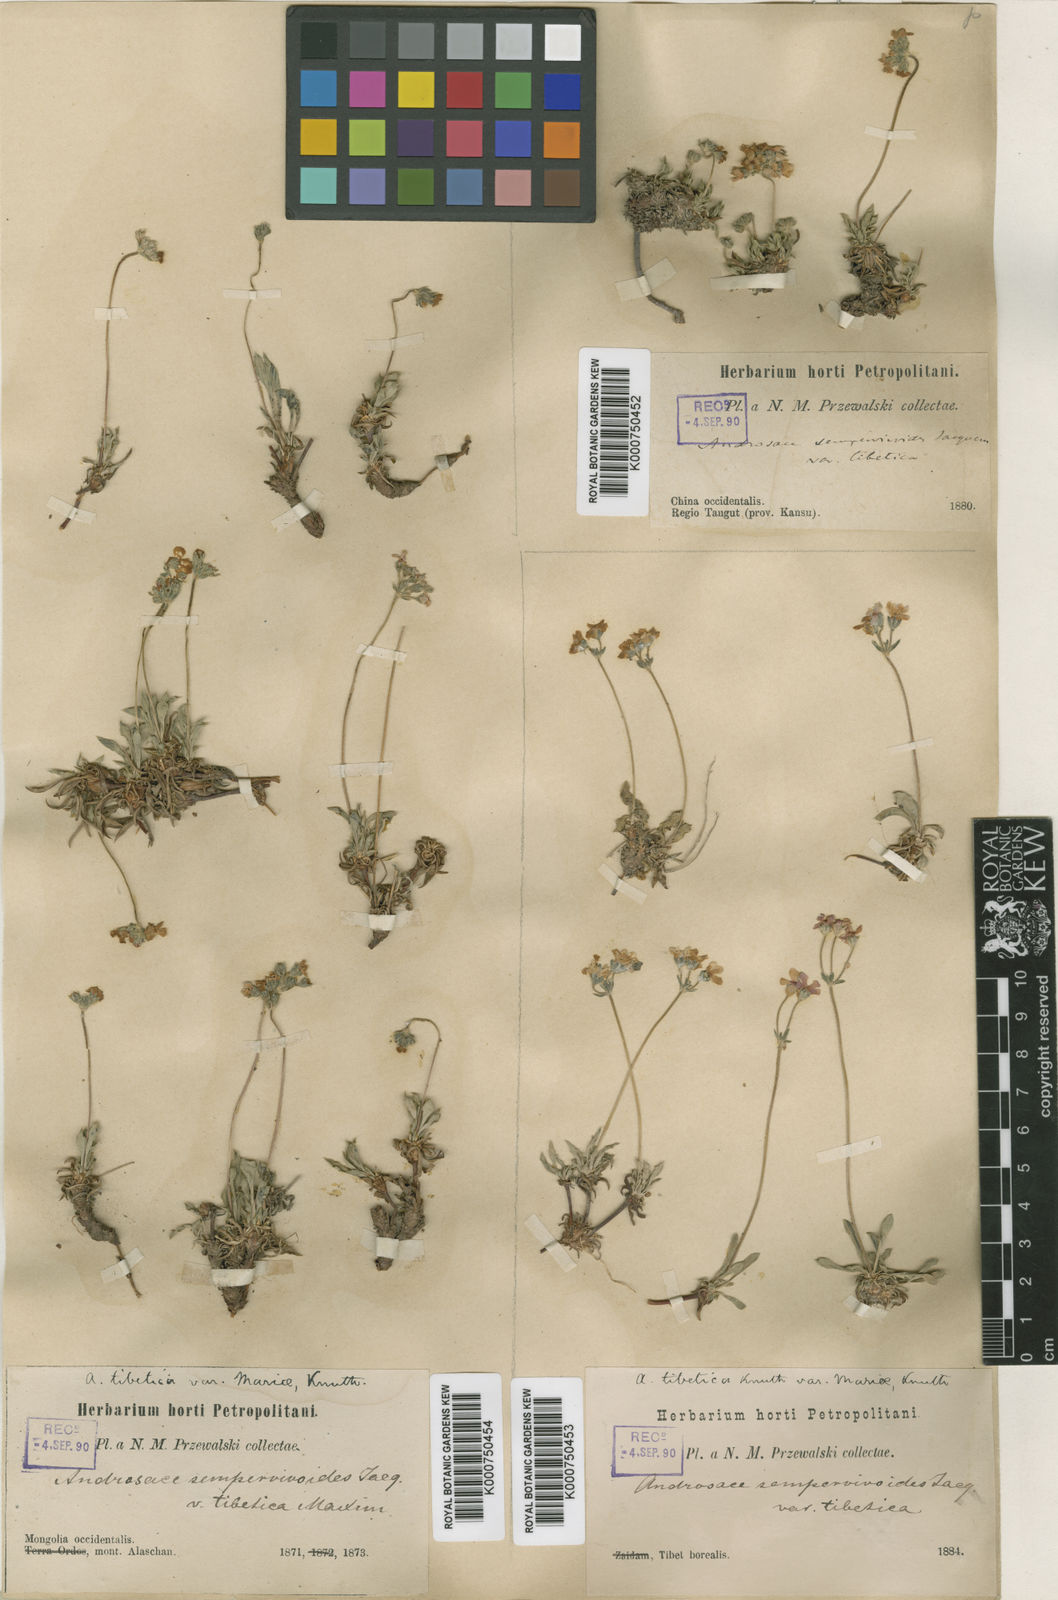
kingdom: Plantae
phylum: Tracheophyta
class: Magnoliopsida
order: Ericales
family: Primulaceae
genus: Androsace
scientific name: Androsace mariae
